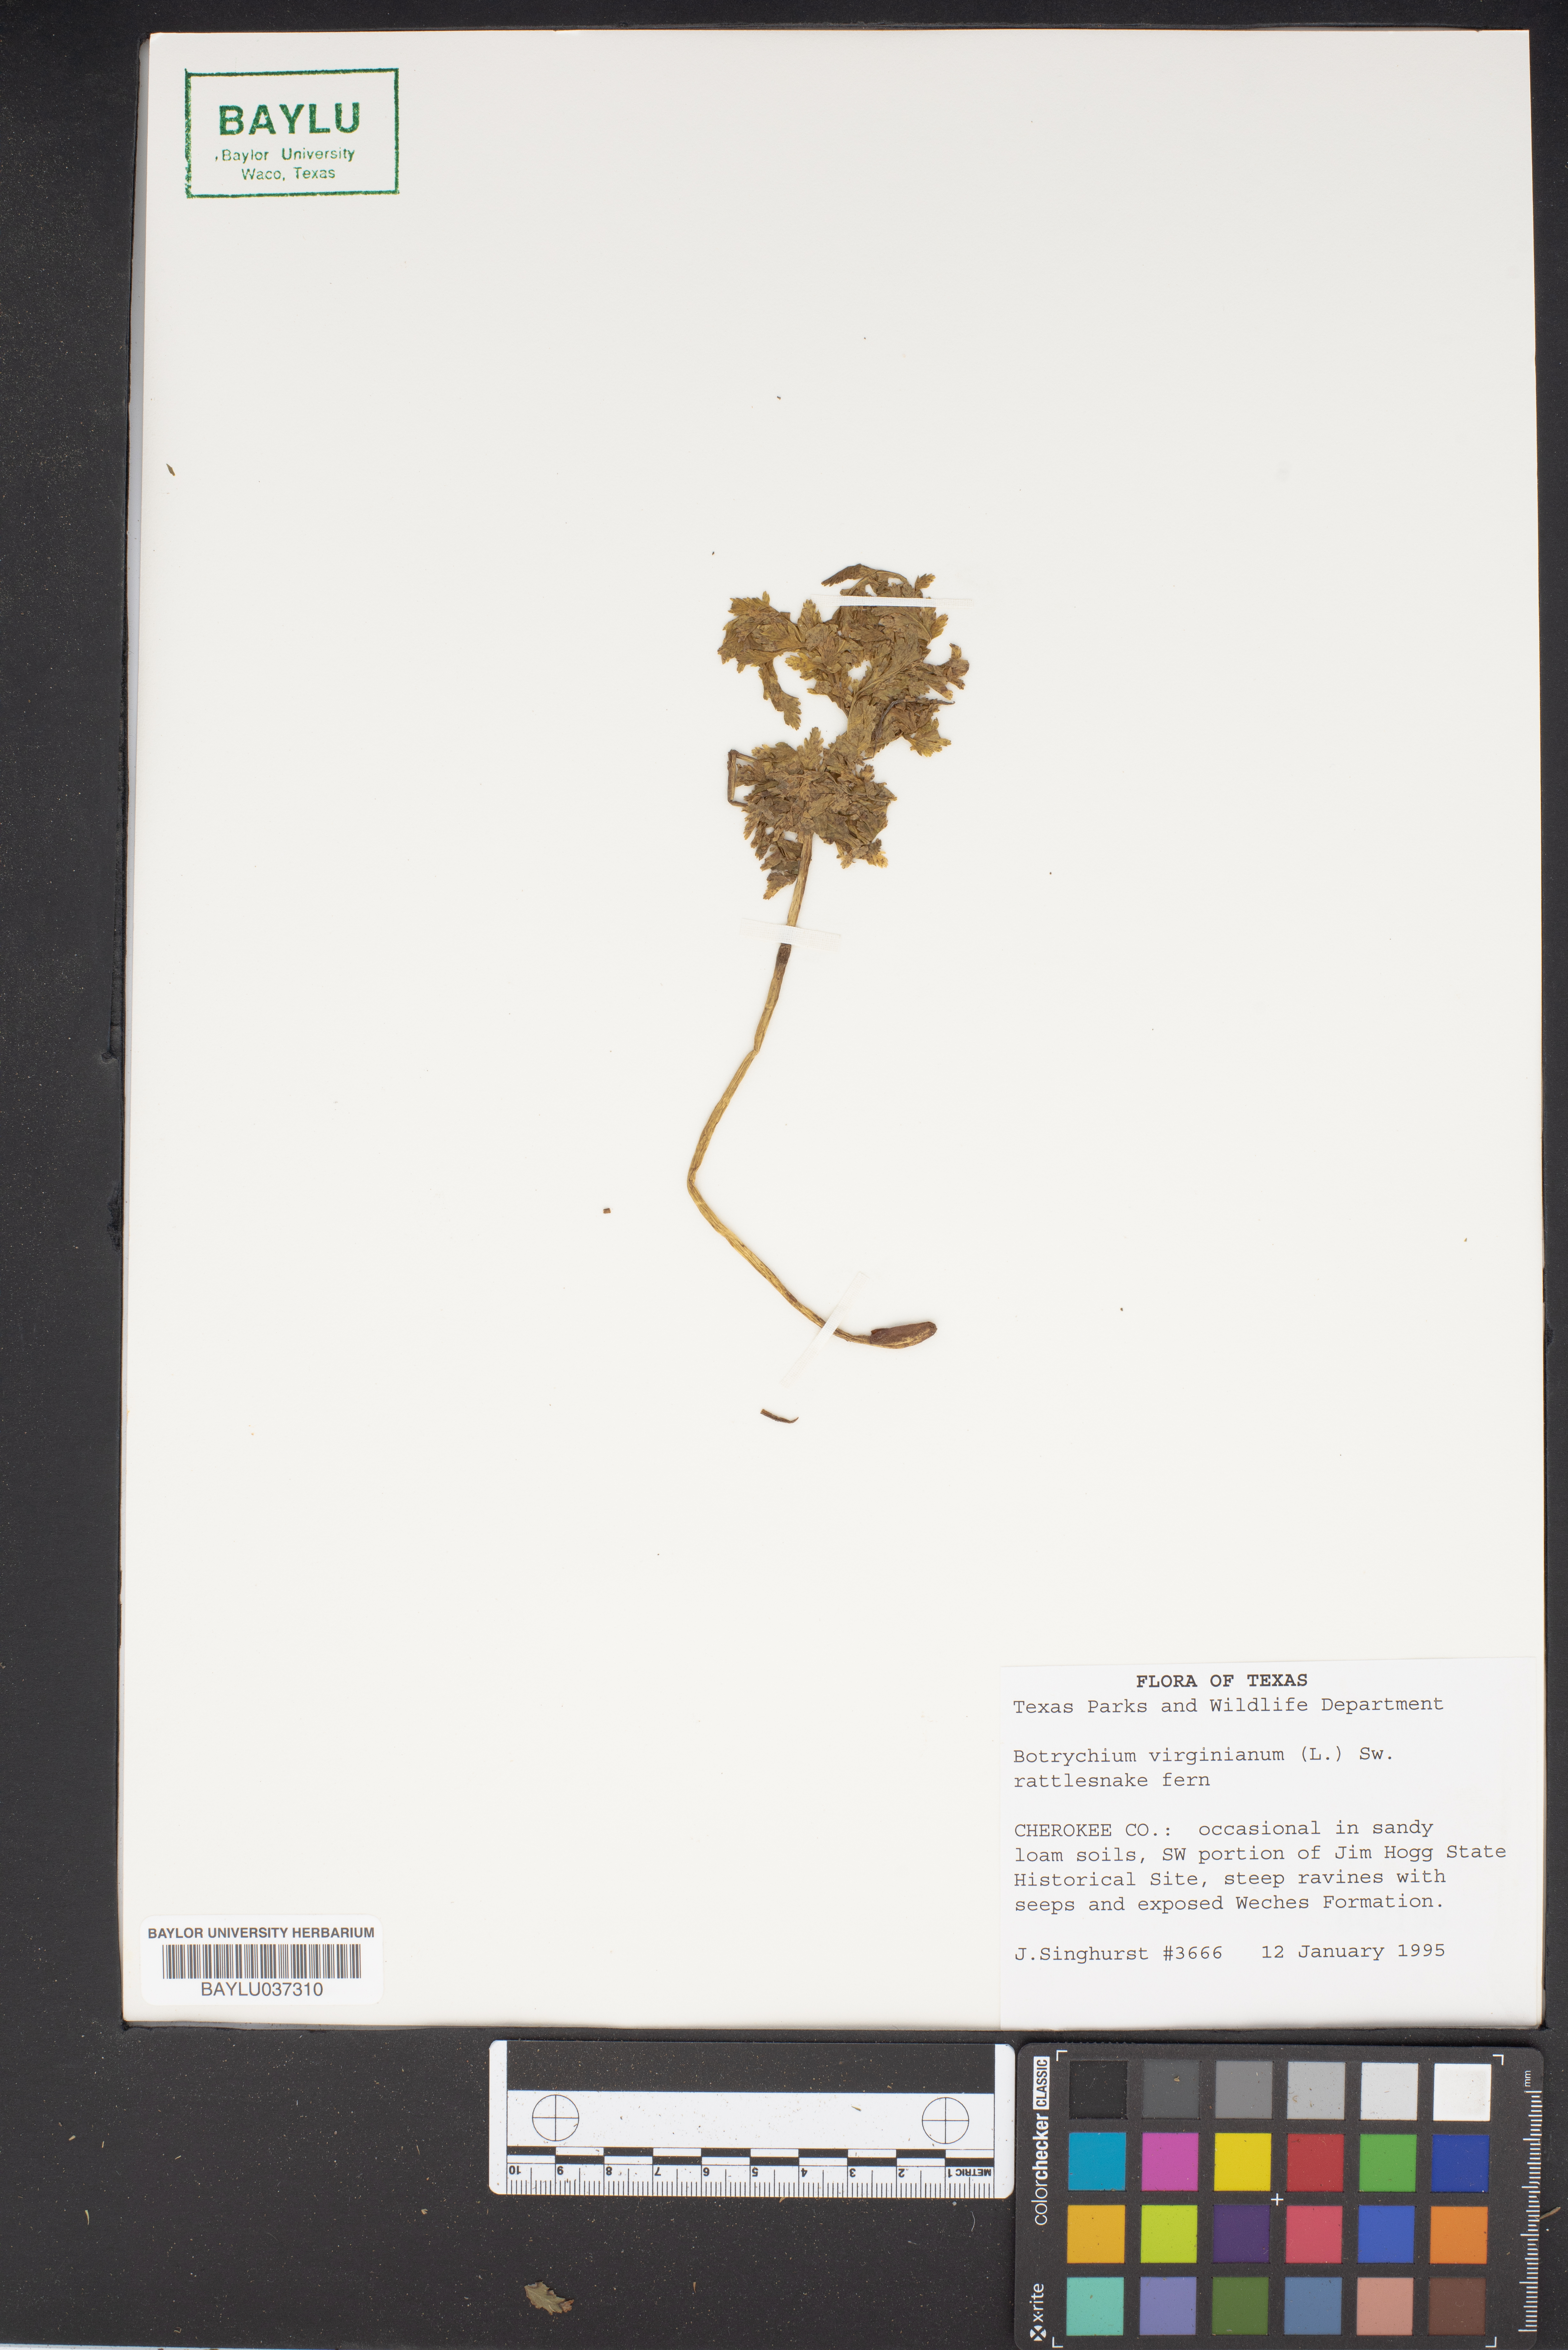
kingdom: Plantae
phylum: Tracheophyta
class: Polypodiopsida
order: Ophioglossales
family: Ophioglossaceae
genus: Botrypus
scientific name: Botrypus virginianus
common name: Common grapefern
